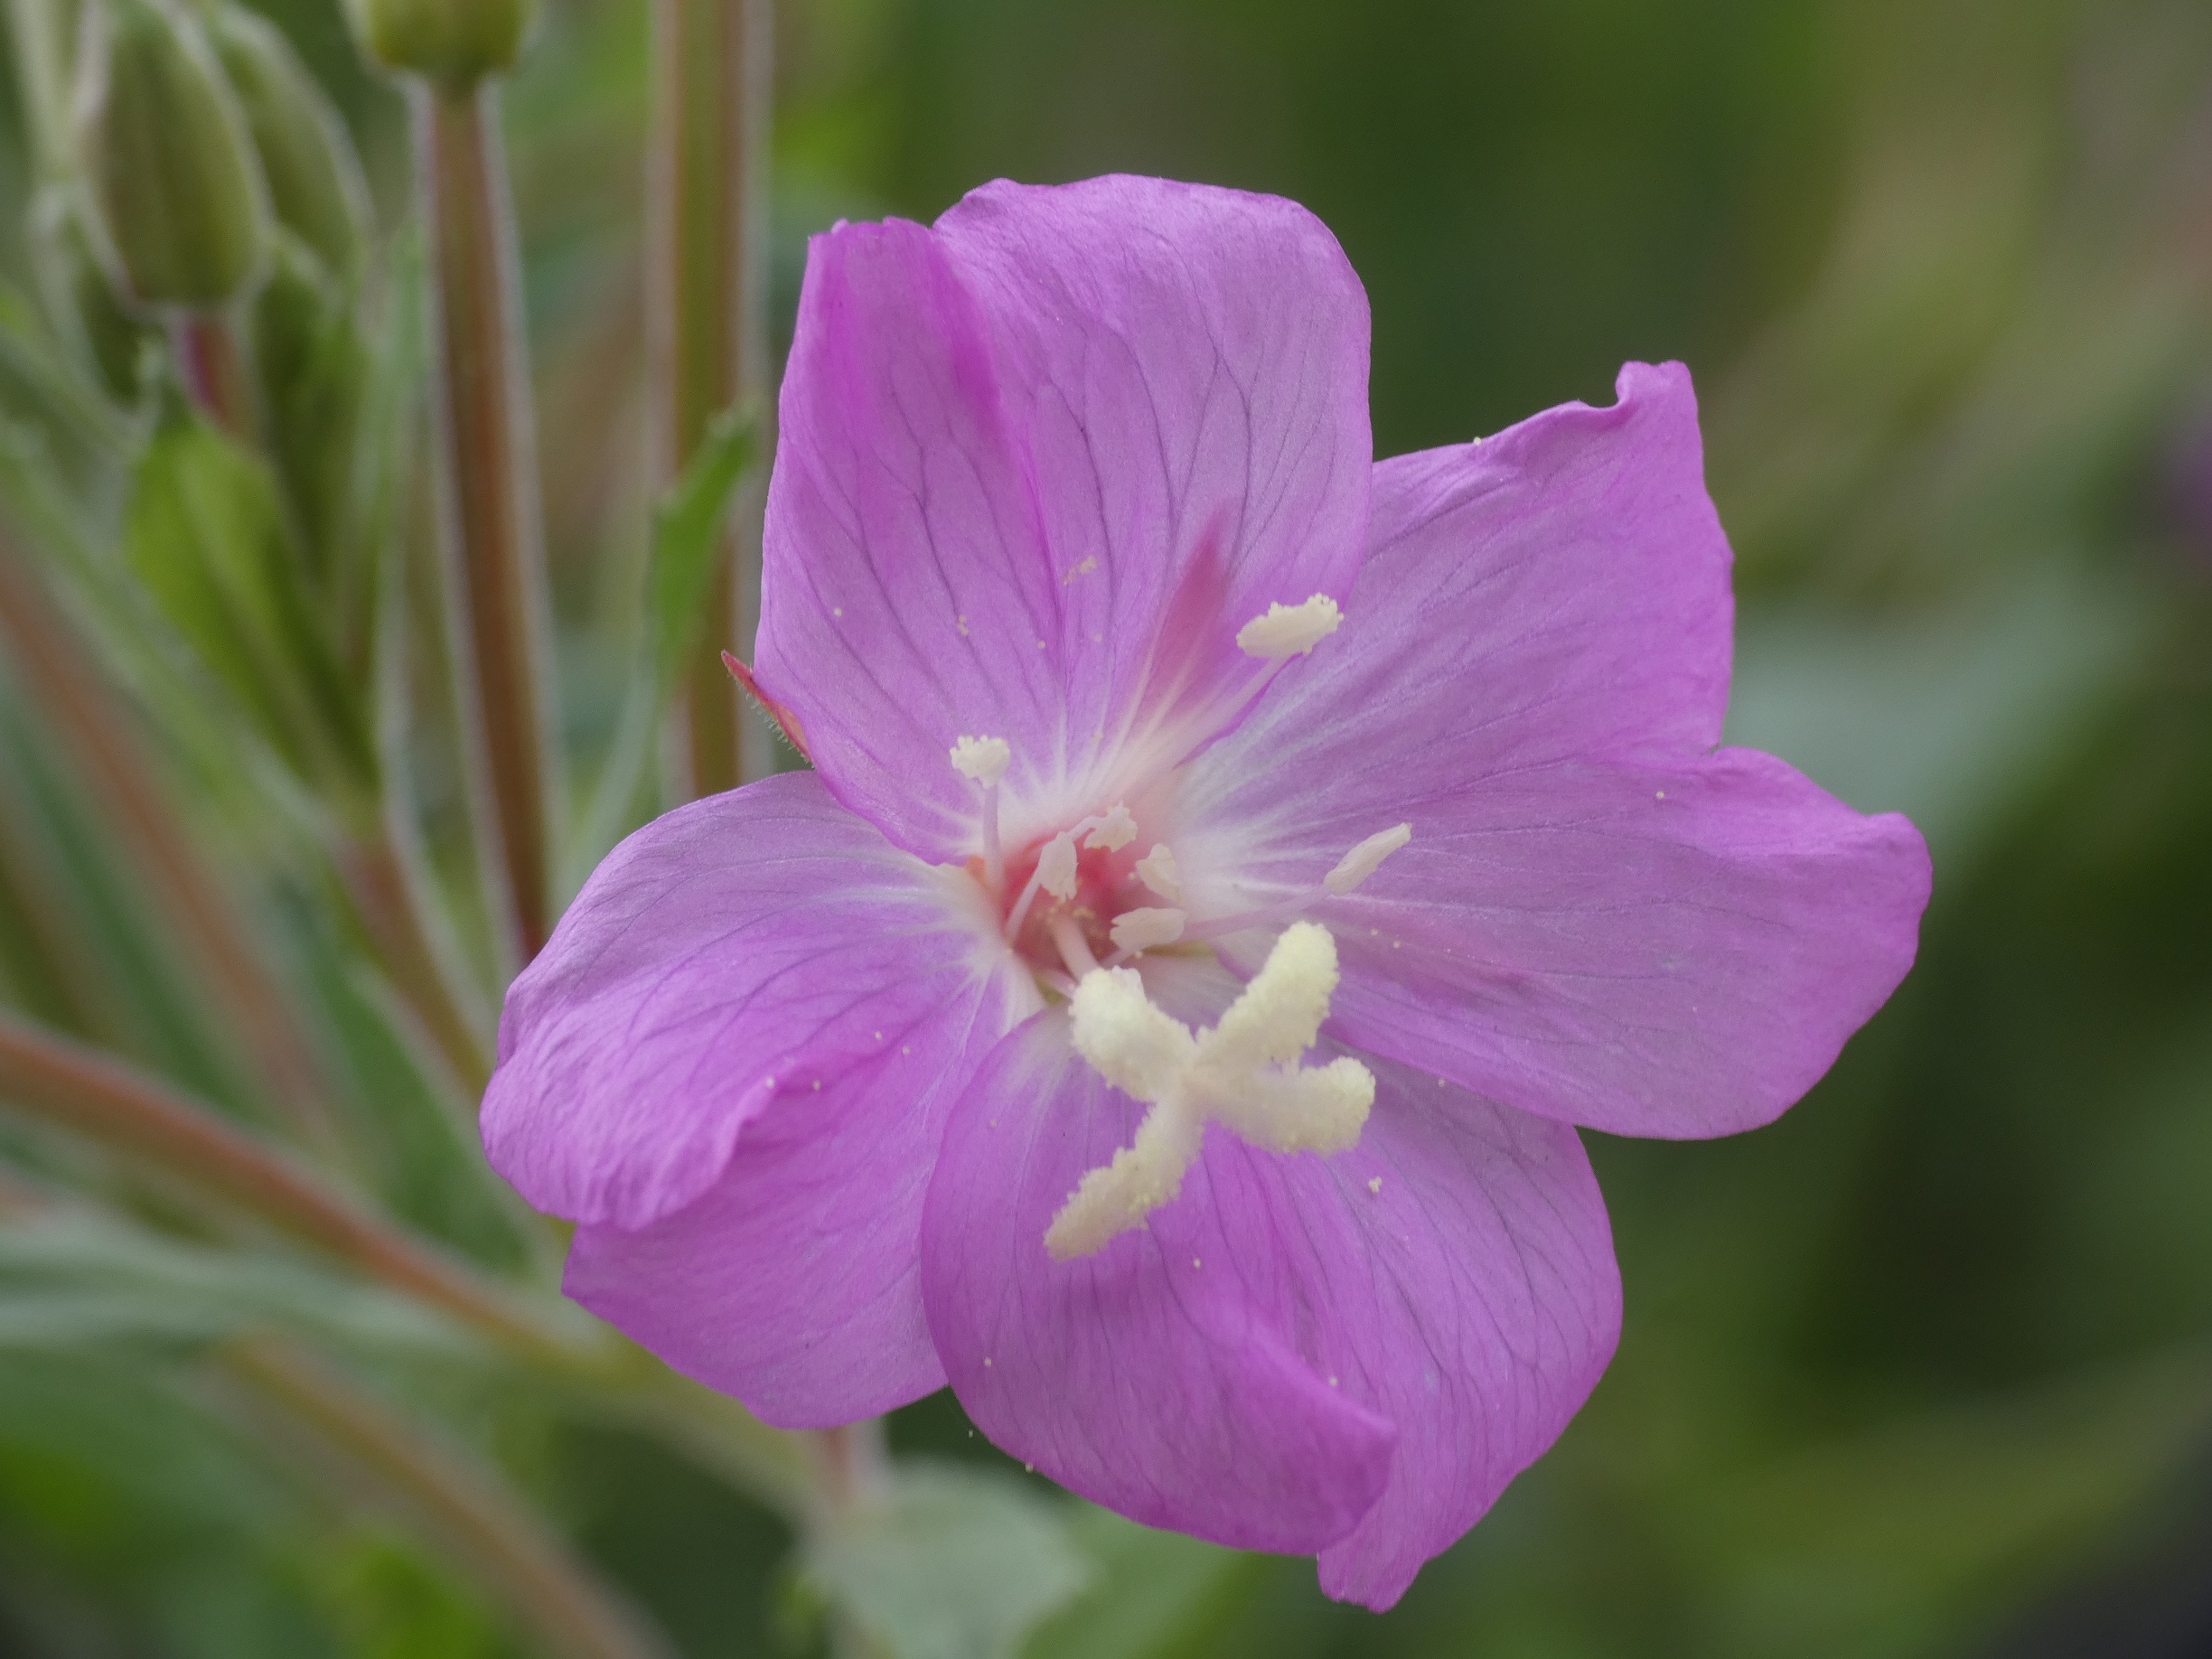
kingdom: Plantae
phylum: Tracheophyta
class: Magnoliopsida
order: Myrtales
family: Onagraceae
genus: Epilobium
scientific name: Epilobium hirsutum
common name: Lådden dueurt
